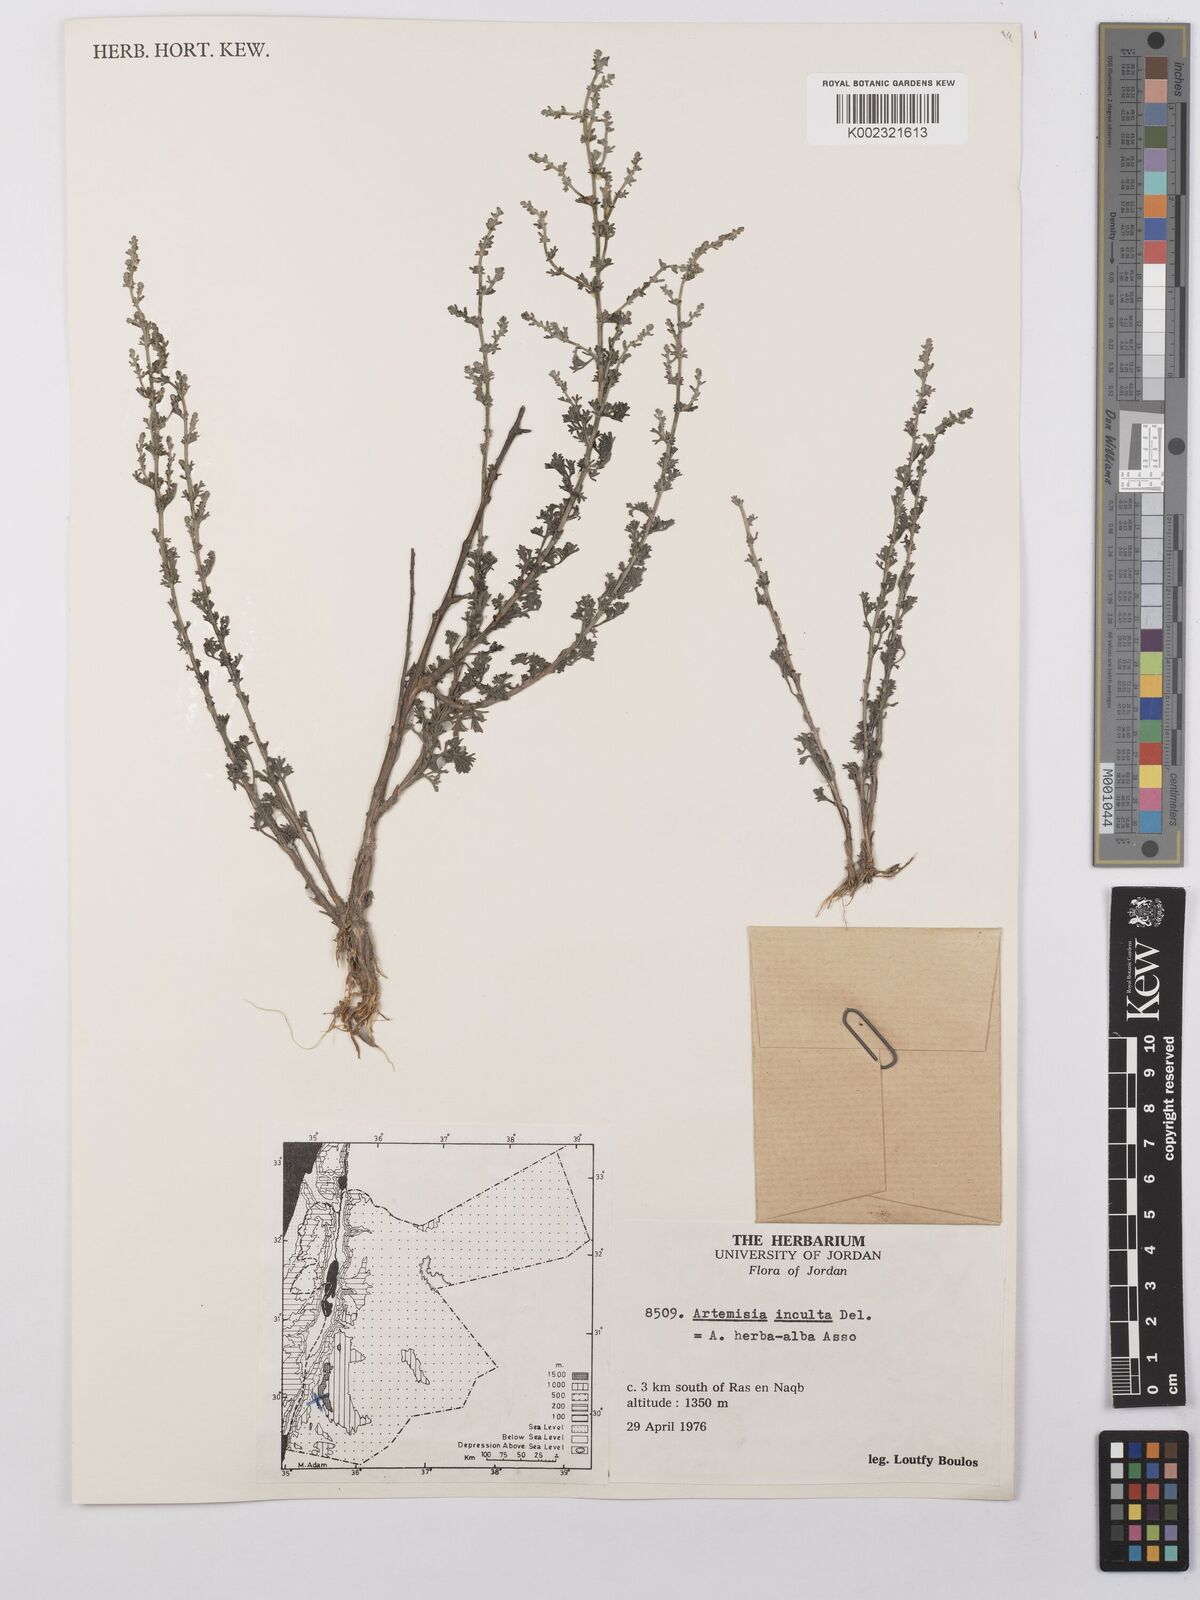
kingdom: Plantae
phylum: Tracheophyta
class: Magnoliopsida
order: Asterales
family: Asteraceae
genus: Artemisia
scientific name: Artemisia herba-alba
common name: White wormwood
